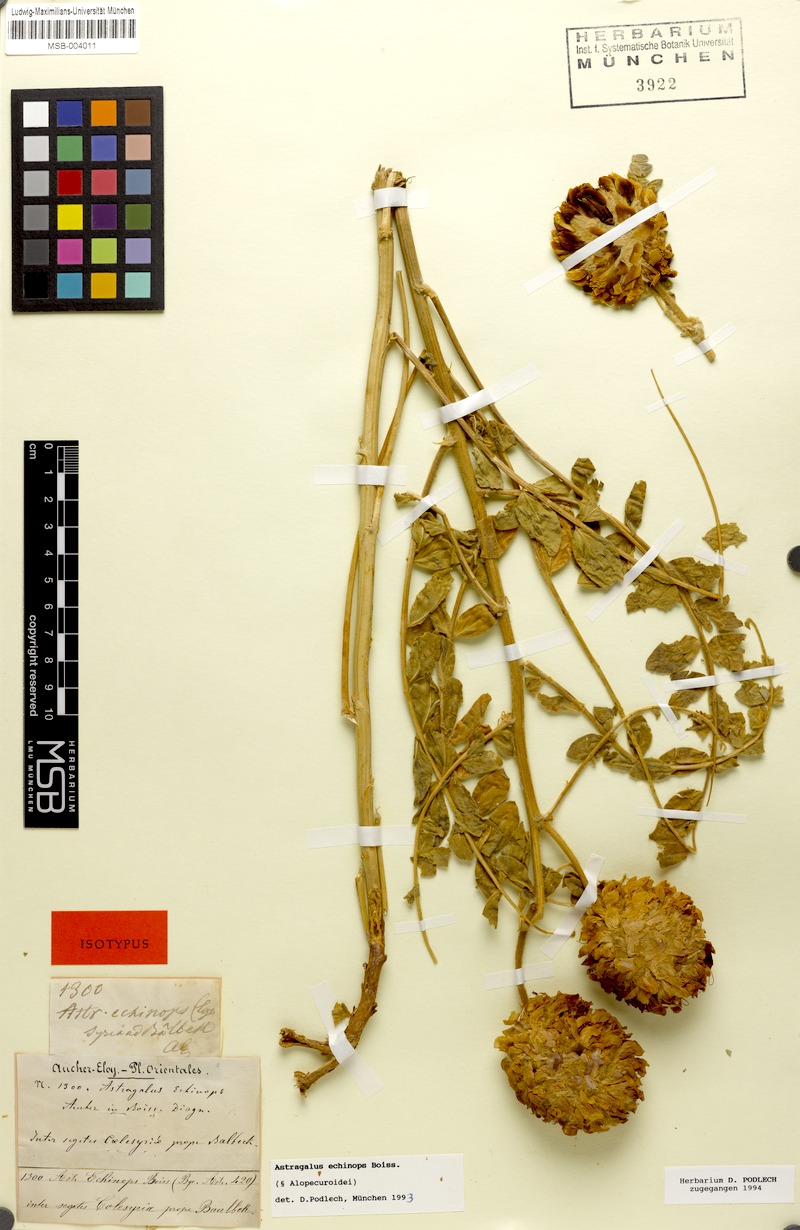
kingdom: Plantae
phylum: Tracheophyta
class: Magnoliopsida
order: Fabales
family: Fabaceae
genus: Astragalus
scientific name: Astragalus echinops
